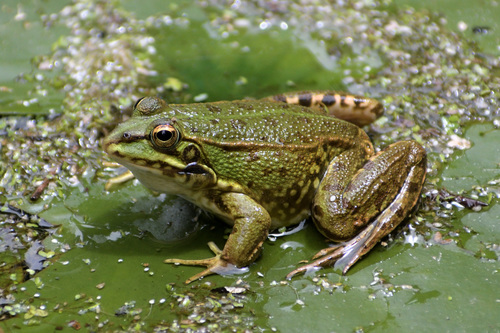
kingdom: Animalia
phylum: Chordata
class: Amphibia
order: Anura
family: Ranidae
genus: Pelophylax
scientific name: Pelophylax perezi
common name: Perez's frog
